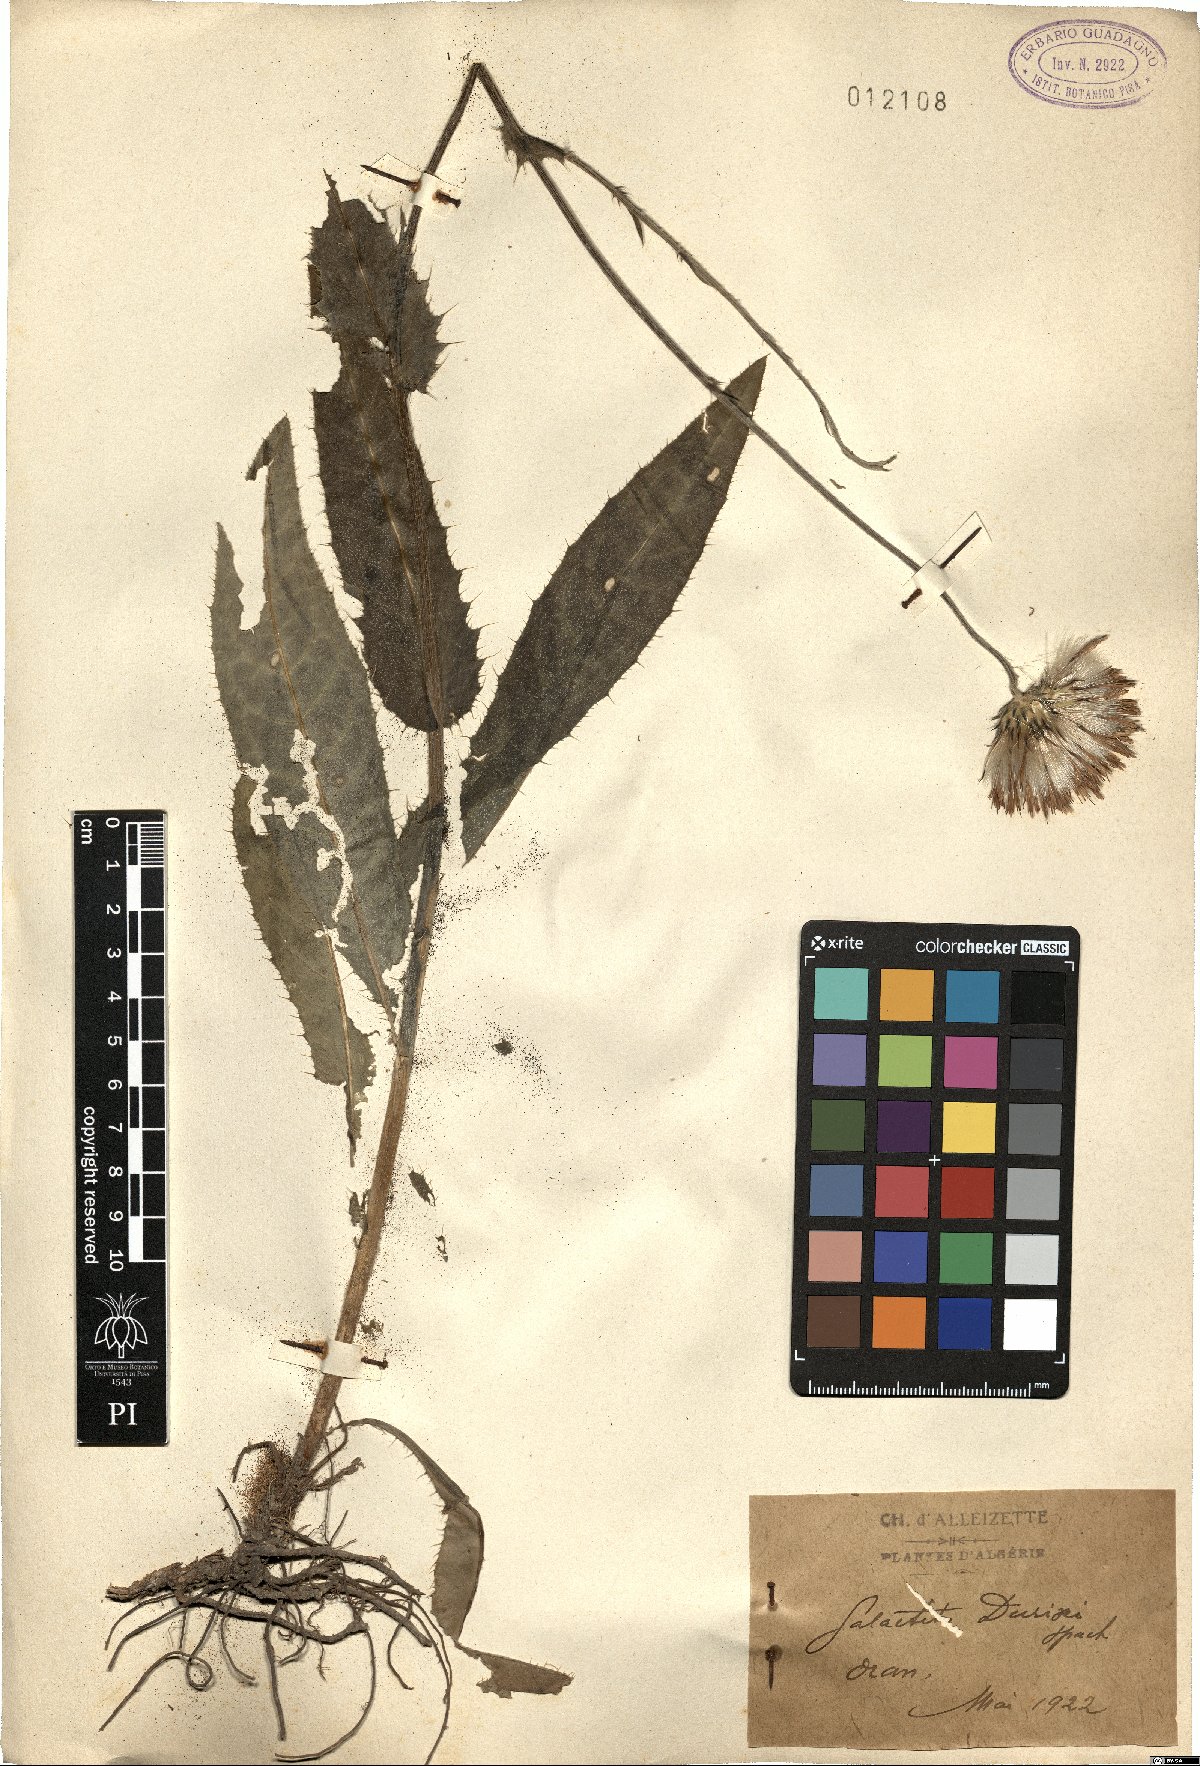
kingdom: Plantae
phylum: Tracheophyta
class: Magnoliopsida
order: Asterales
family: Asteraceae
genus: Galactites
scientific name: Galactites duriaei
